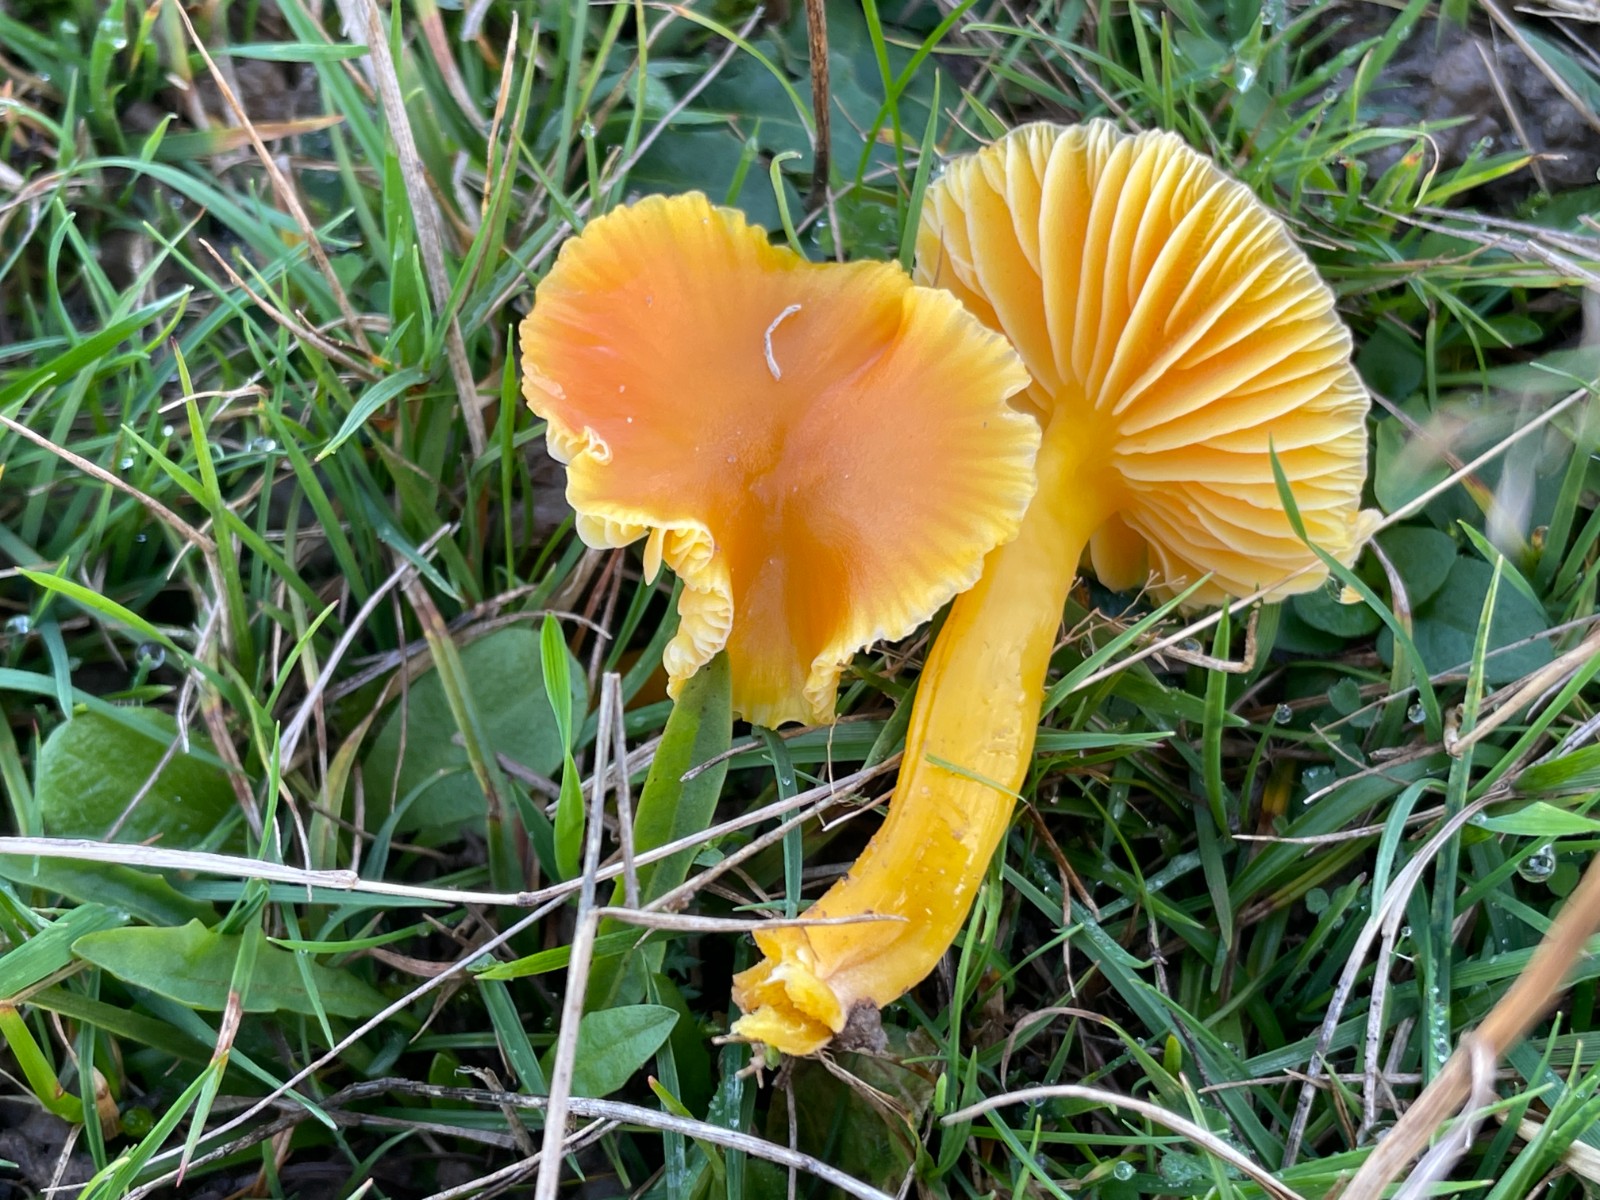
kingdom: Fungi
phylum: Basidiomycota
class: Agaricomycetes
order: Agaricales
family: Hygrophoraceae
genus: Hygrocybe
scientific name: Hygrocybe chlorophana
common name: gul vokshat
